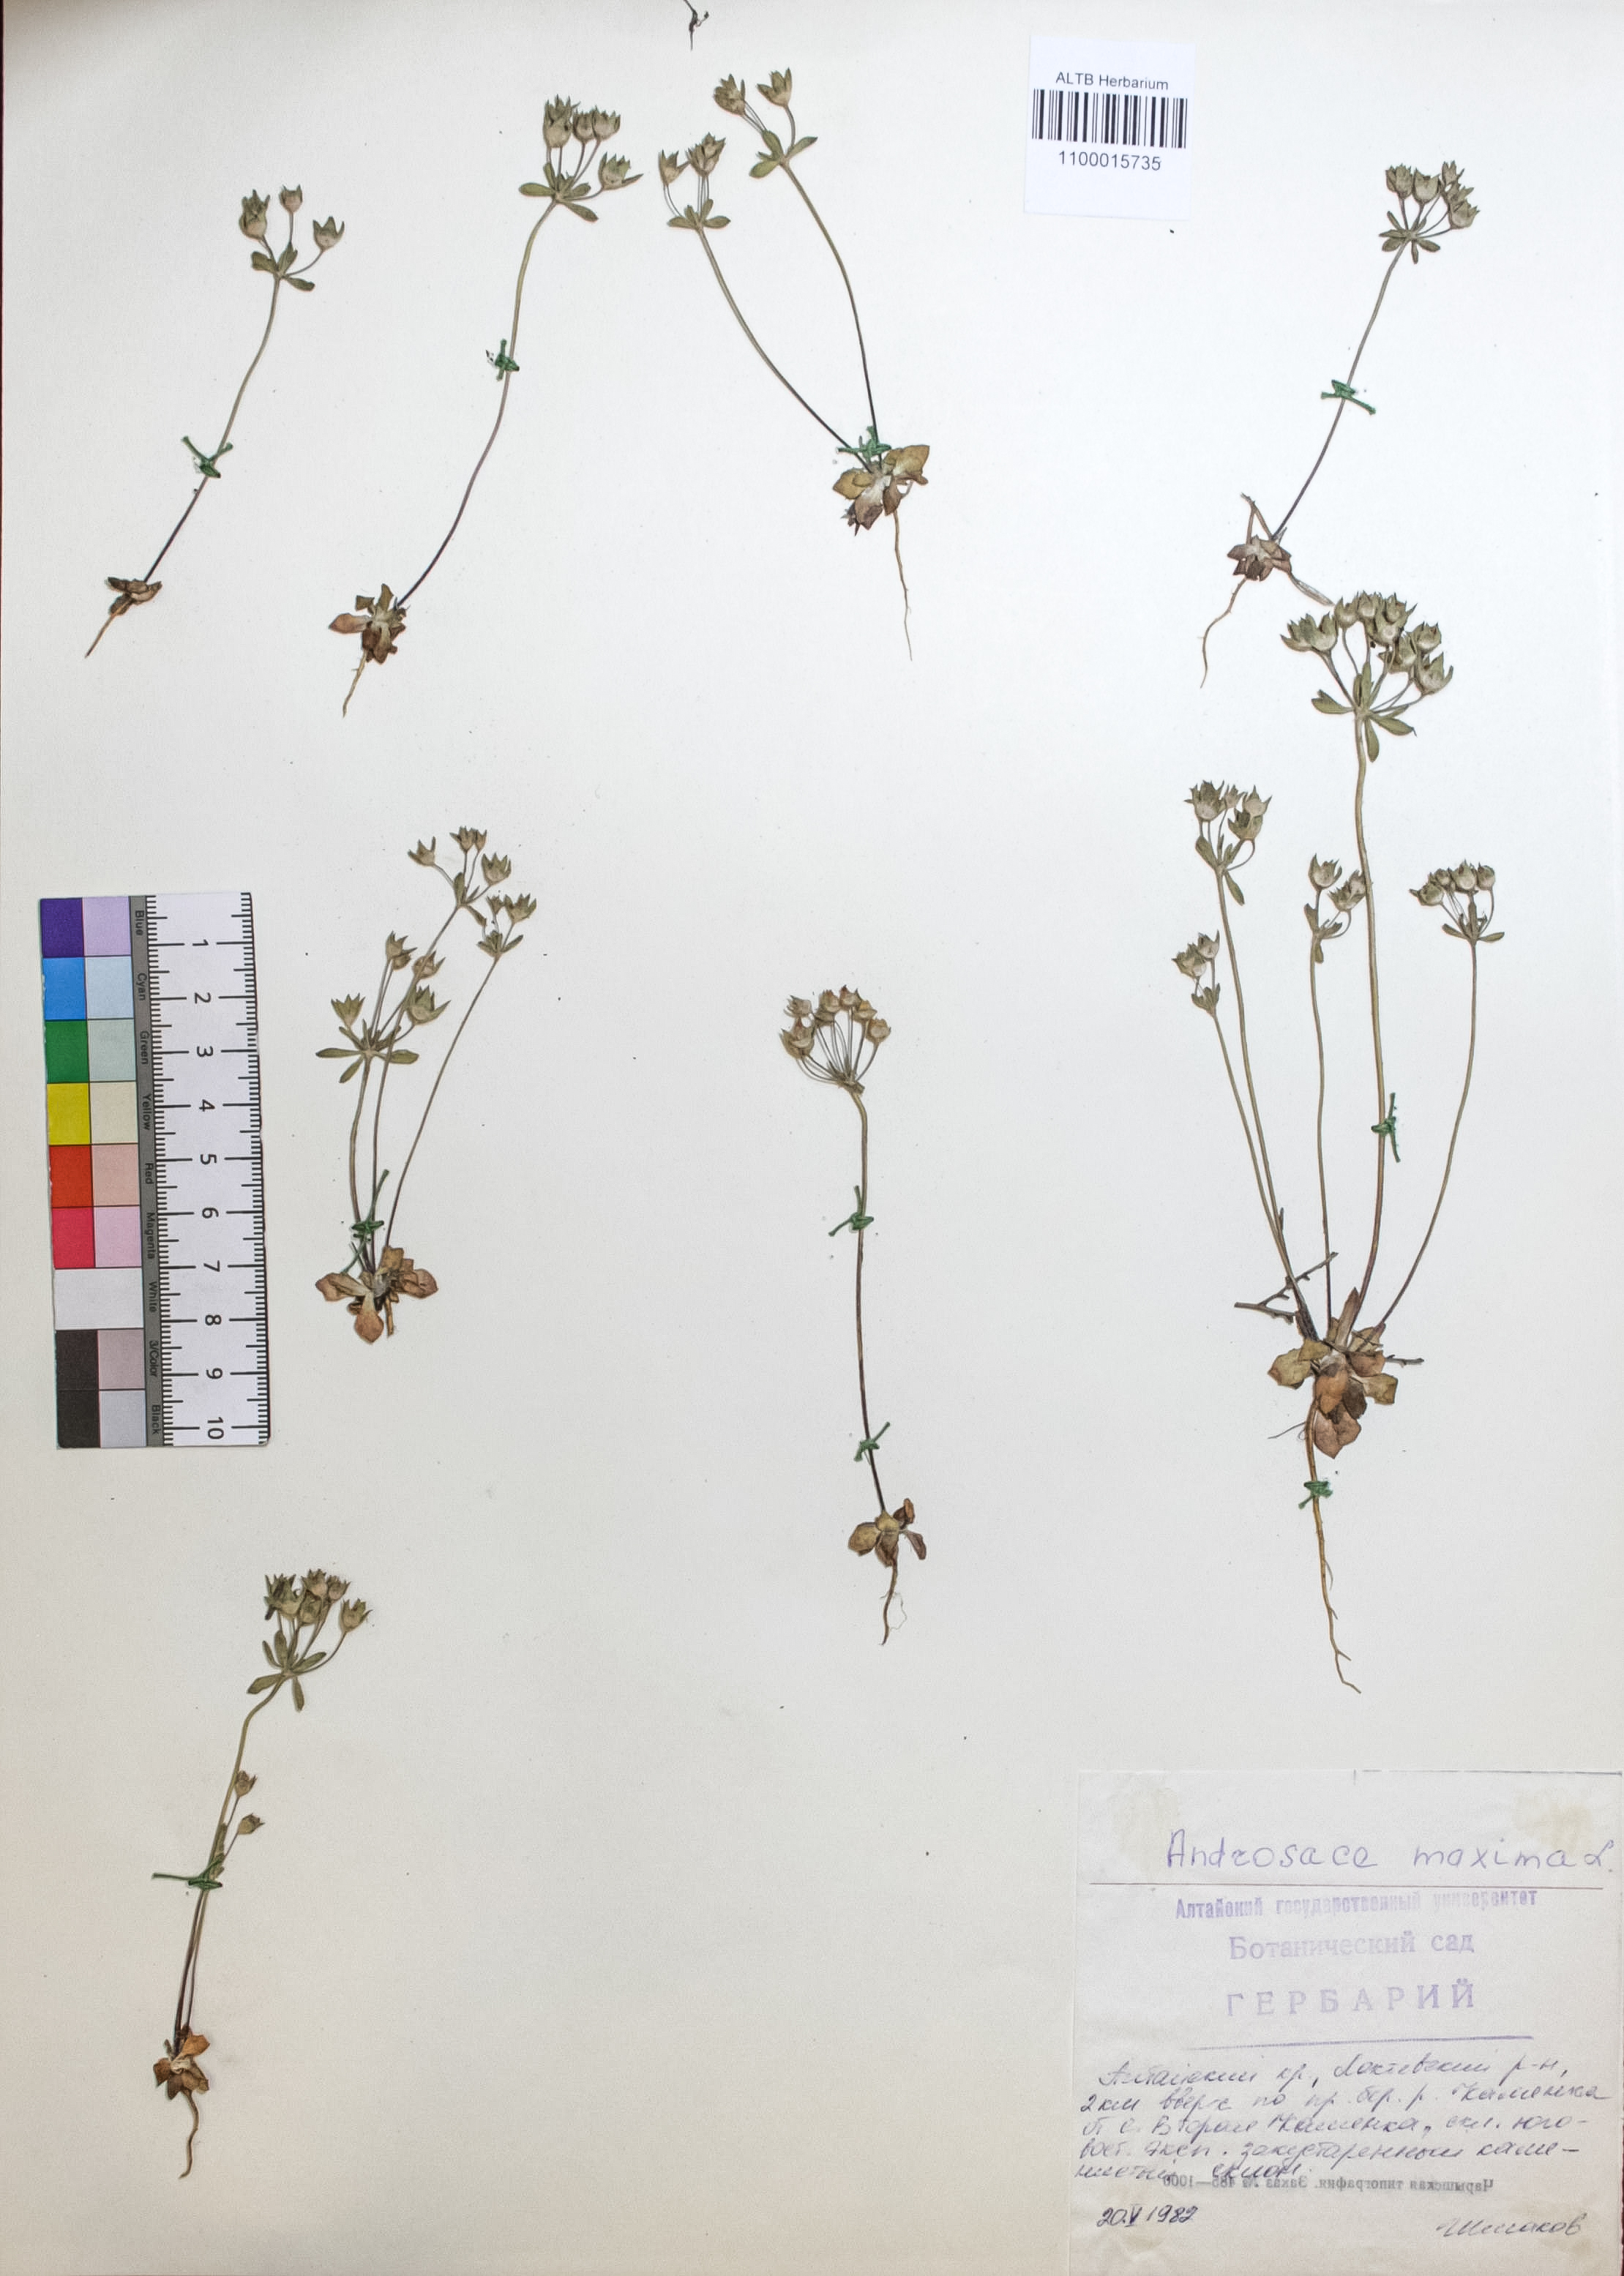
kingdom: Plantae
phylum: Tracheophyta
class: Magnoliopsida
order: Ericales
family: Primulaceae
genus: Androsace
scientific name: Androsace maxima
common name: Annual androsace
